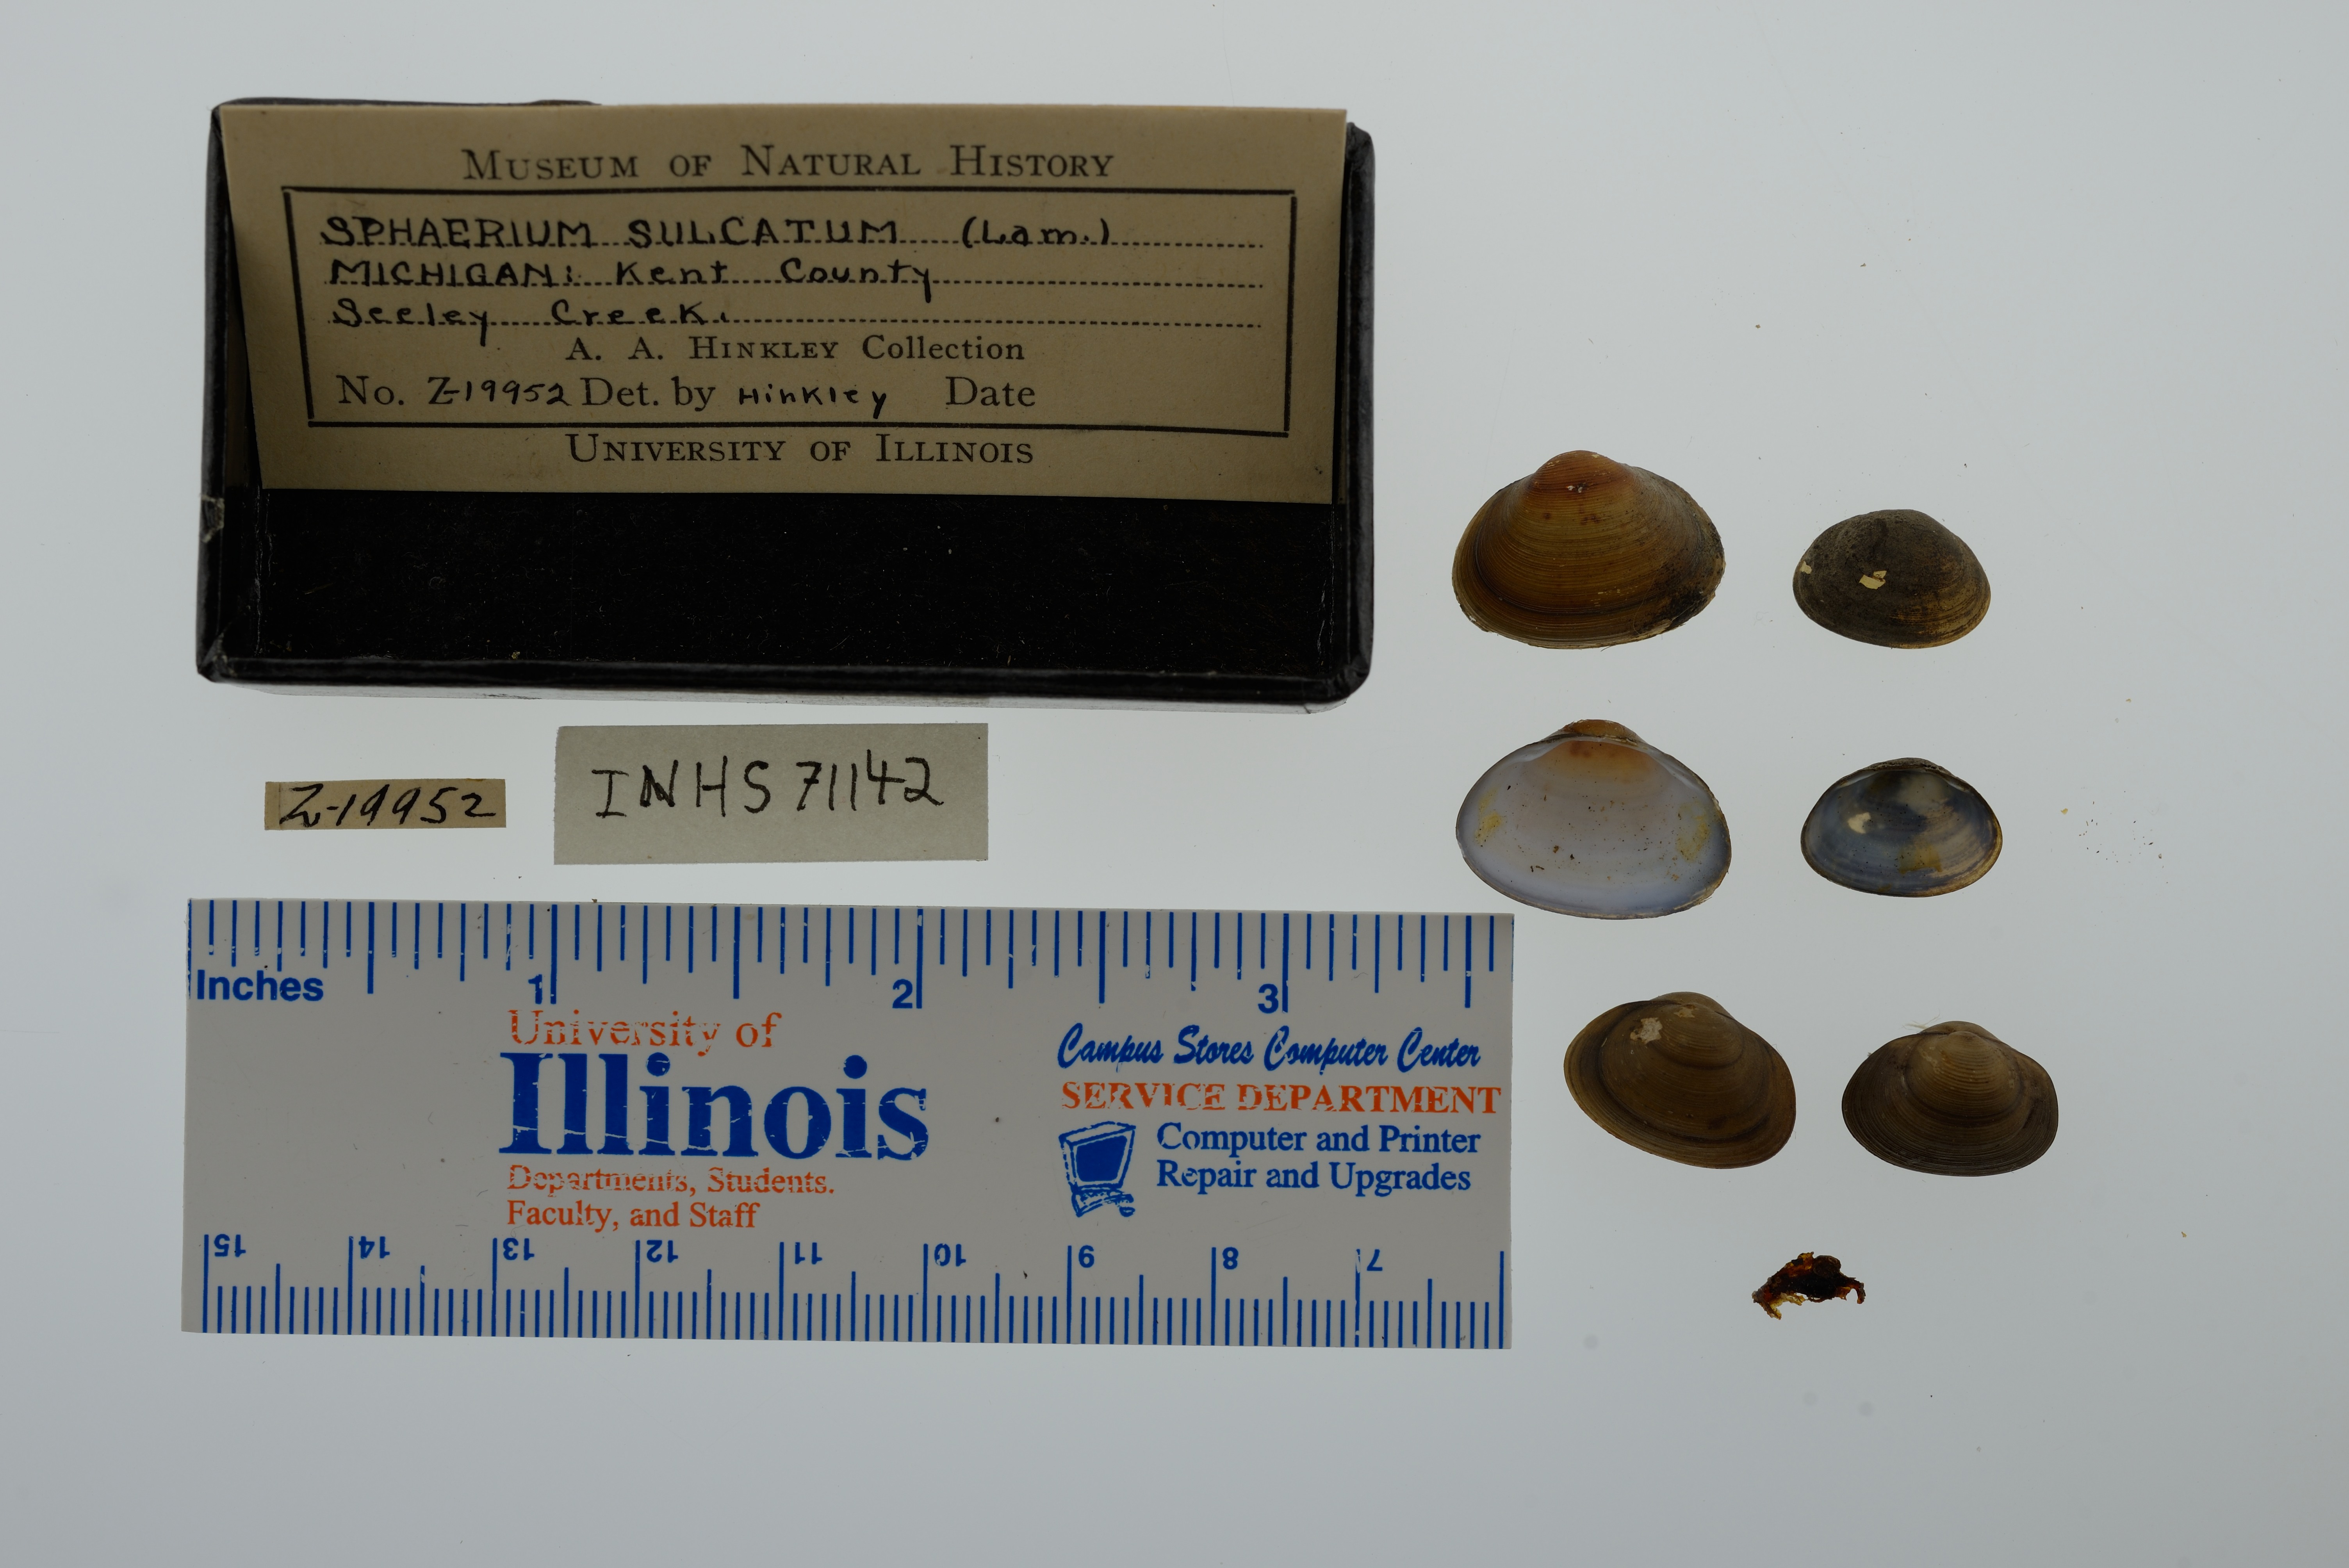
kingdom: Animalia
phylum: Mollusca
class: Bivalvia
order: Sphaeriida
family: Sphaeriidae
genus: Sphaerium
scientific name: Sphaerium simile
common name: Grooved fingernailclam
